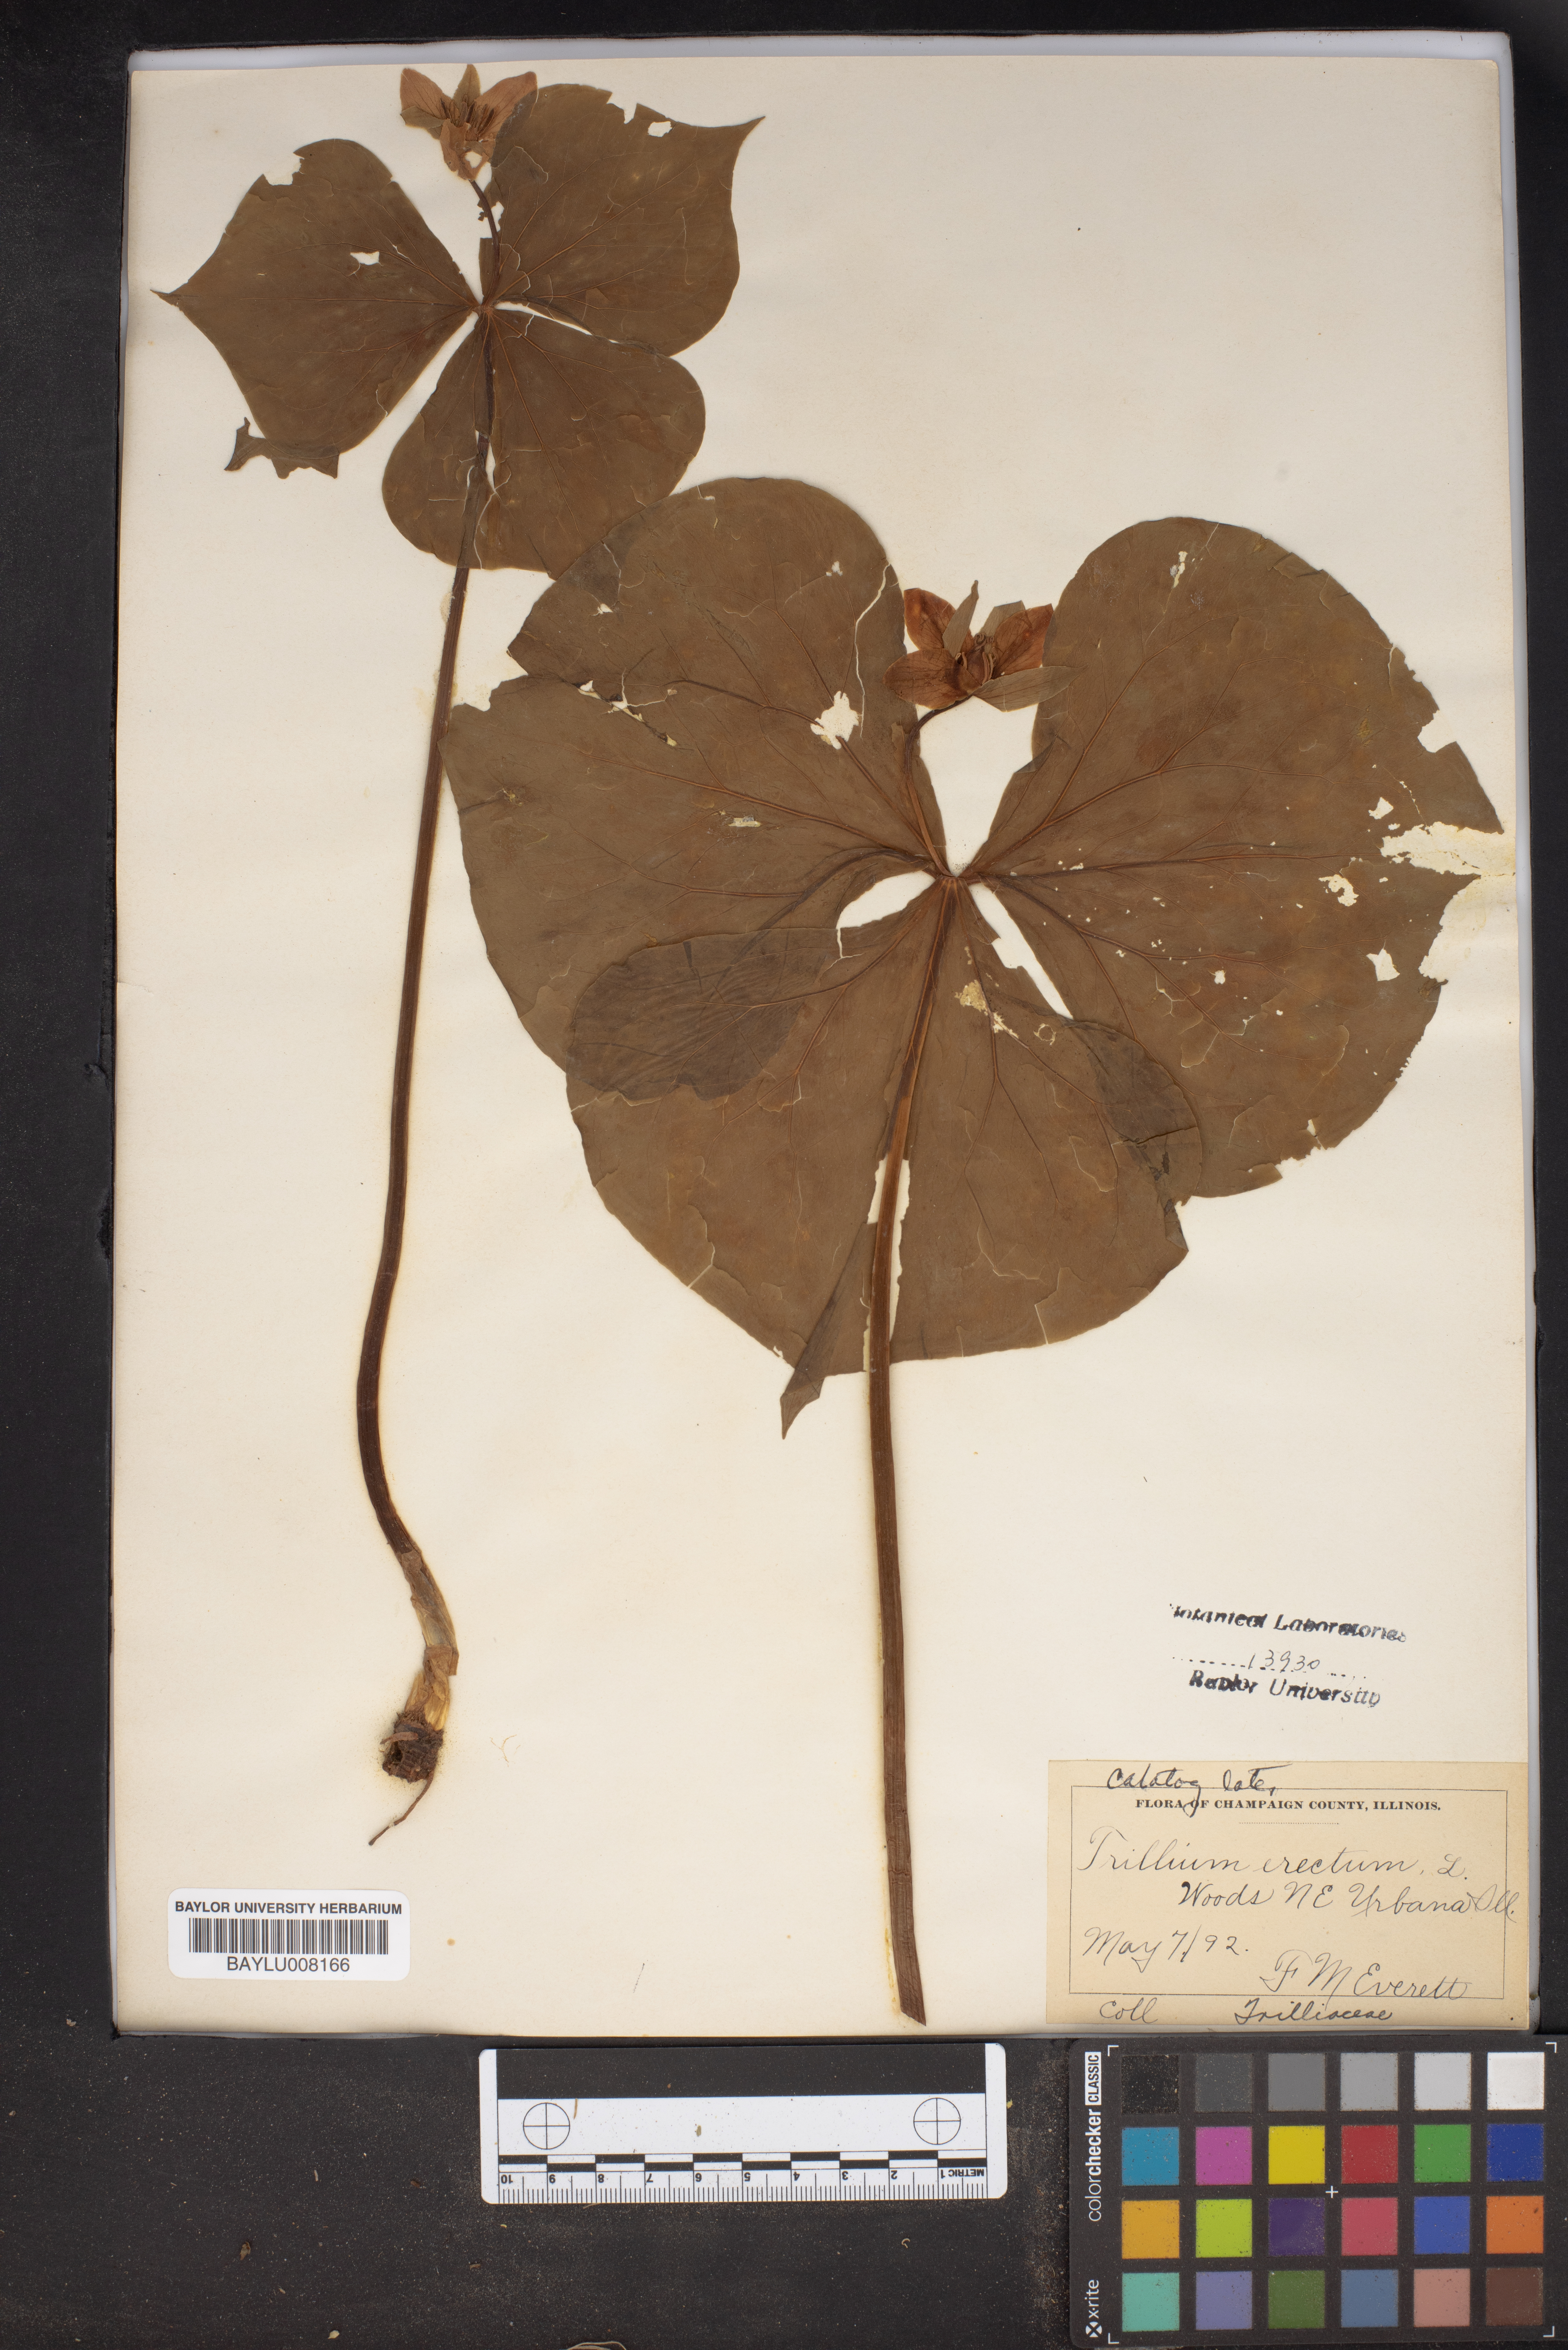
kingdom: Plantae
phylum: Tracheophyta
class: Liliopsida
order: Liliales
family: Melanthiaceae
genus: Trillium
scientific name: Trillium erectum
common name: Purple trillium
